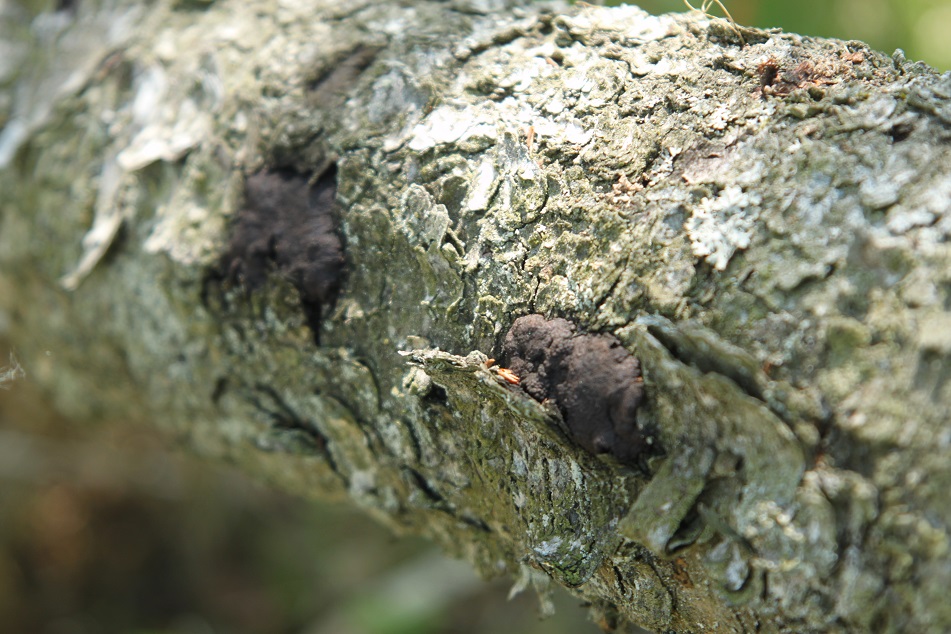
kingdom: Fungi
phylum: Ascomycota
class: Sordariomycetes
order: Xylariales
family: Hypoxylaceae
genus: Jackrogersella
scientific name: Jackrogersella multiformis
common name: foranderlig kulbær
